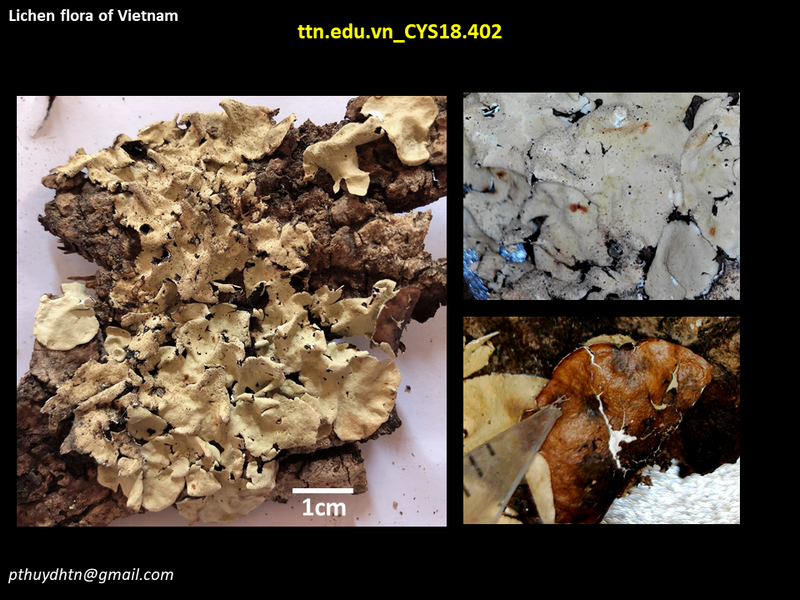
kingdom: Fungi
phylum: Ascomycota
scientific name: Ascomycota
